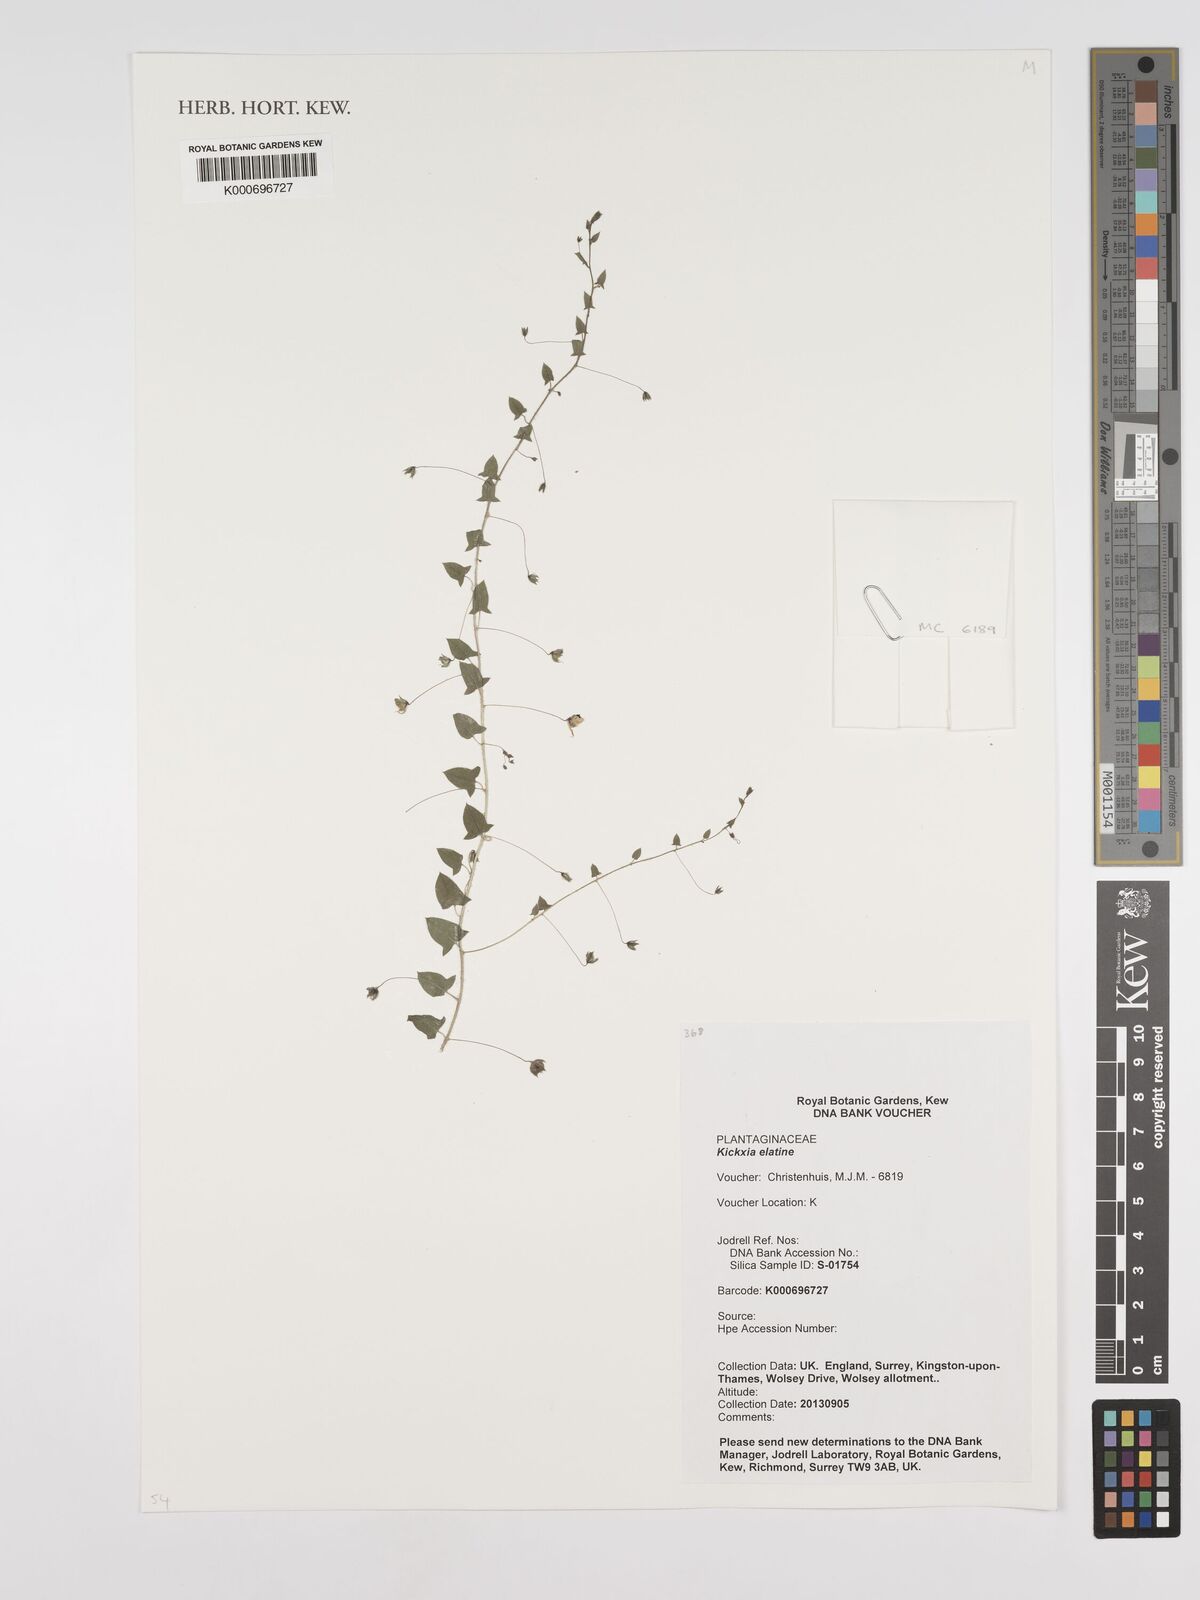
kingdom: Plantae
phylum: Tracheophyta
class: Magnoliopsida
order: Lamiales
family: Plantaginaceae
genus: Kickxia
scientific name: Kickxia elatine
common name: Sharp-leaved fluellen
